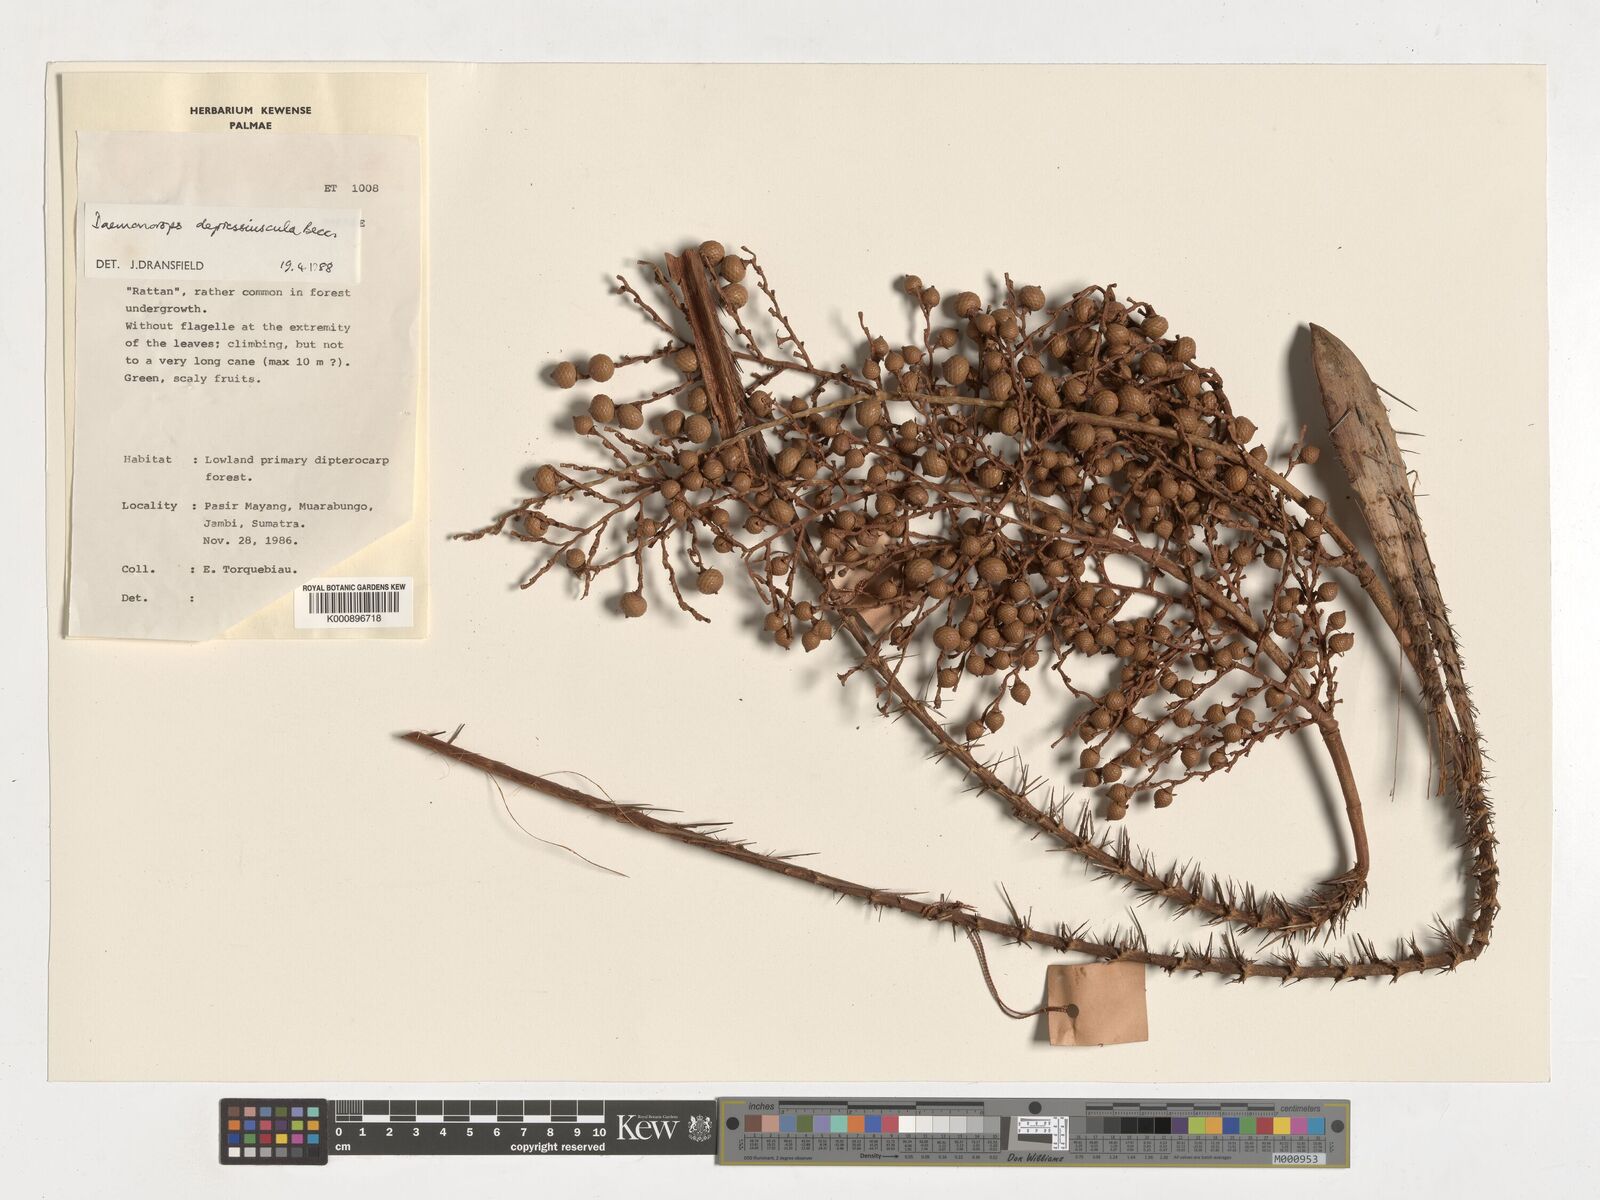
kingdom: Plantae
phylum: Tracheophyta
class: Liliopsida
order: Arecales
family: Arecaceae
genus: Daemonorops
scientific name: Daemonorops
